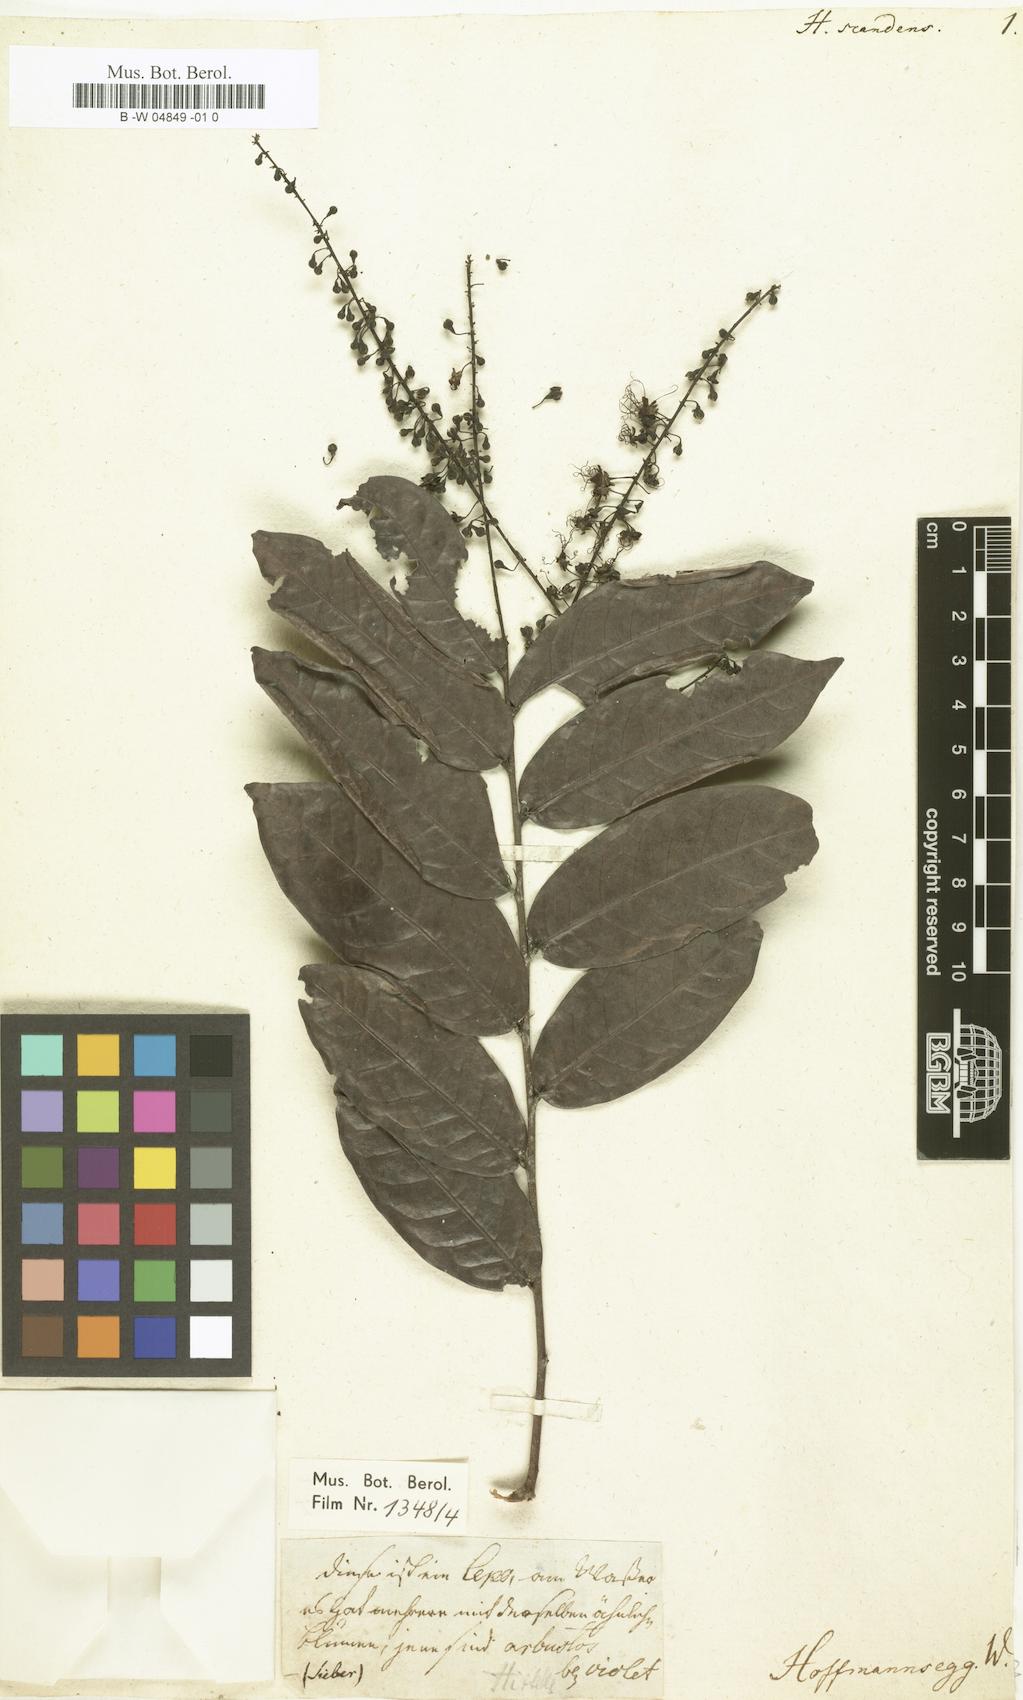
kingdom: Plantae
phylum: Tracheophyta
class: Magnoliopsida
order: Malpighiales
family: Chrysobalanaceae
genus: Hirtella
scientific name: Hirtella racemosa
